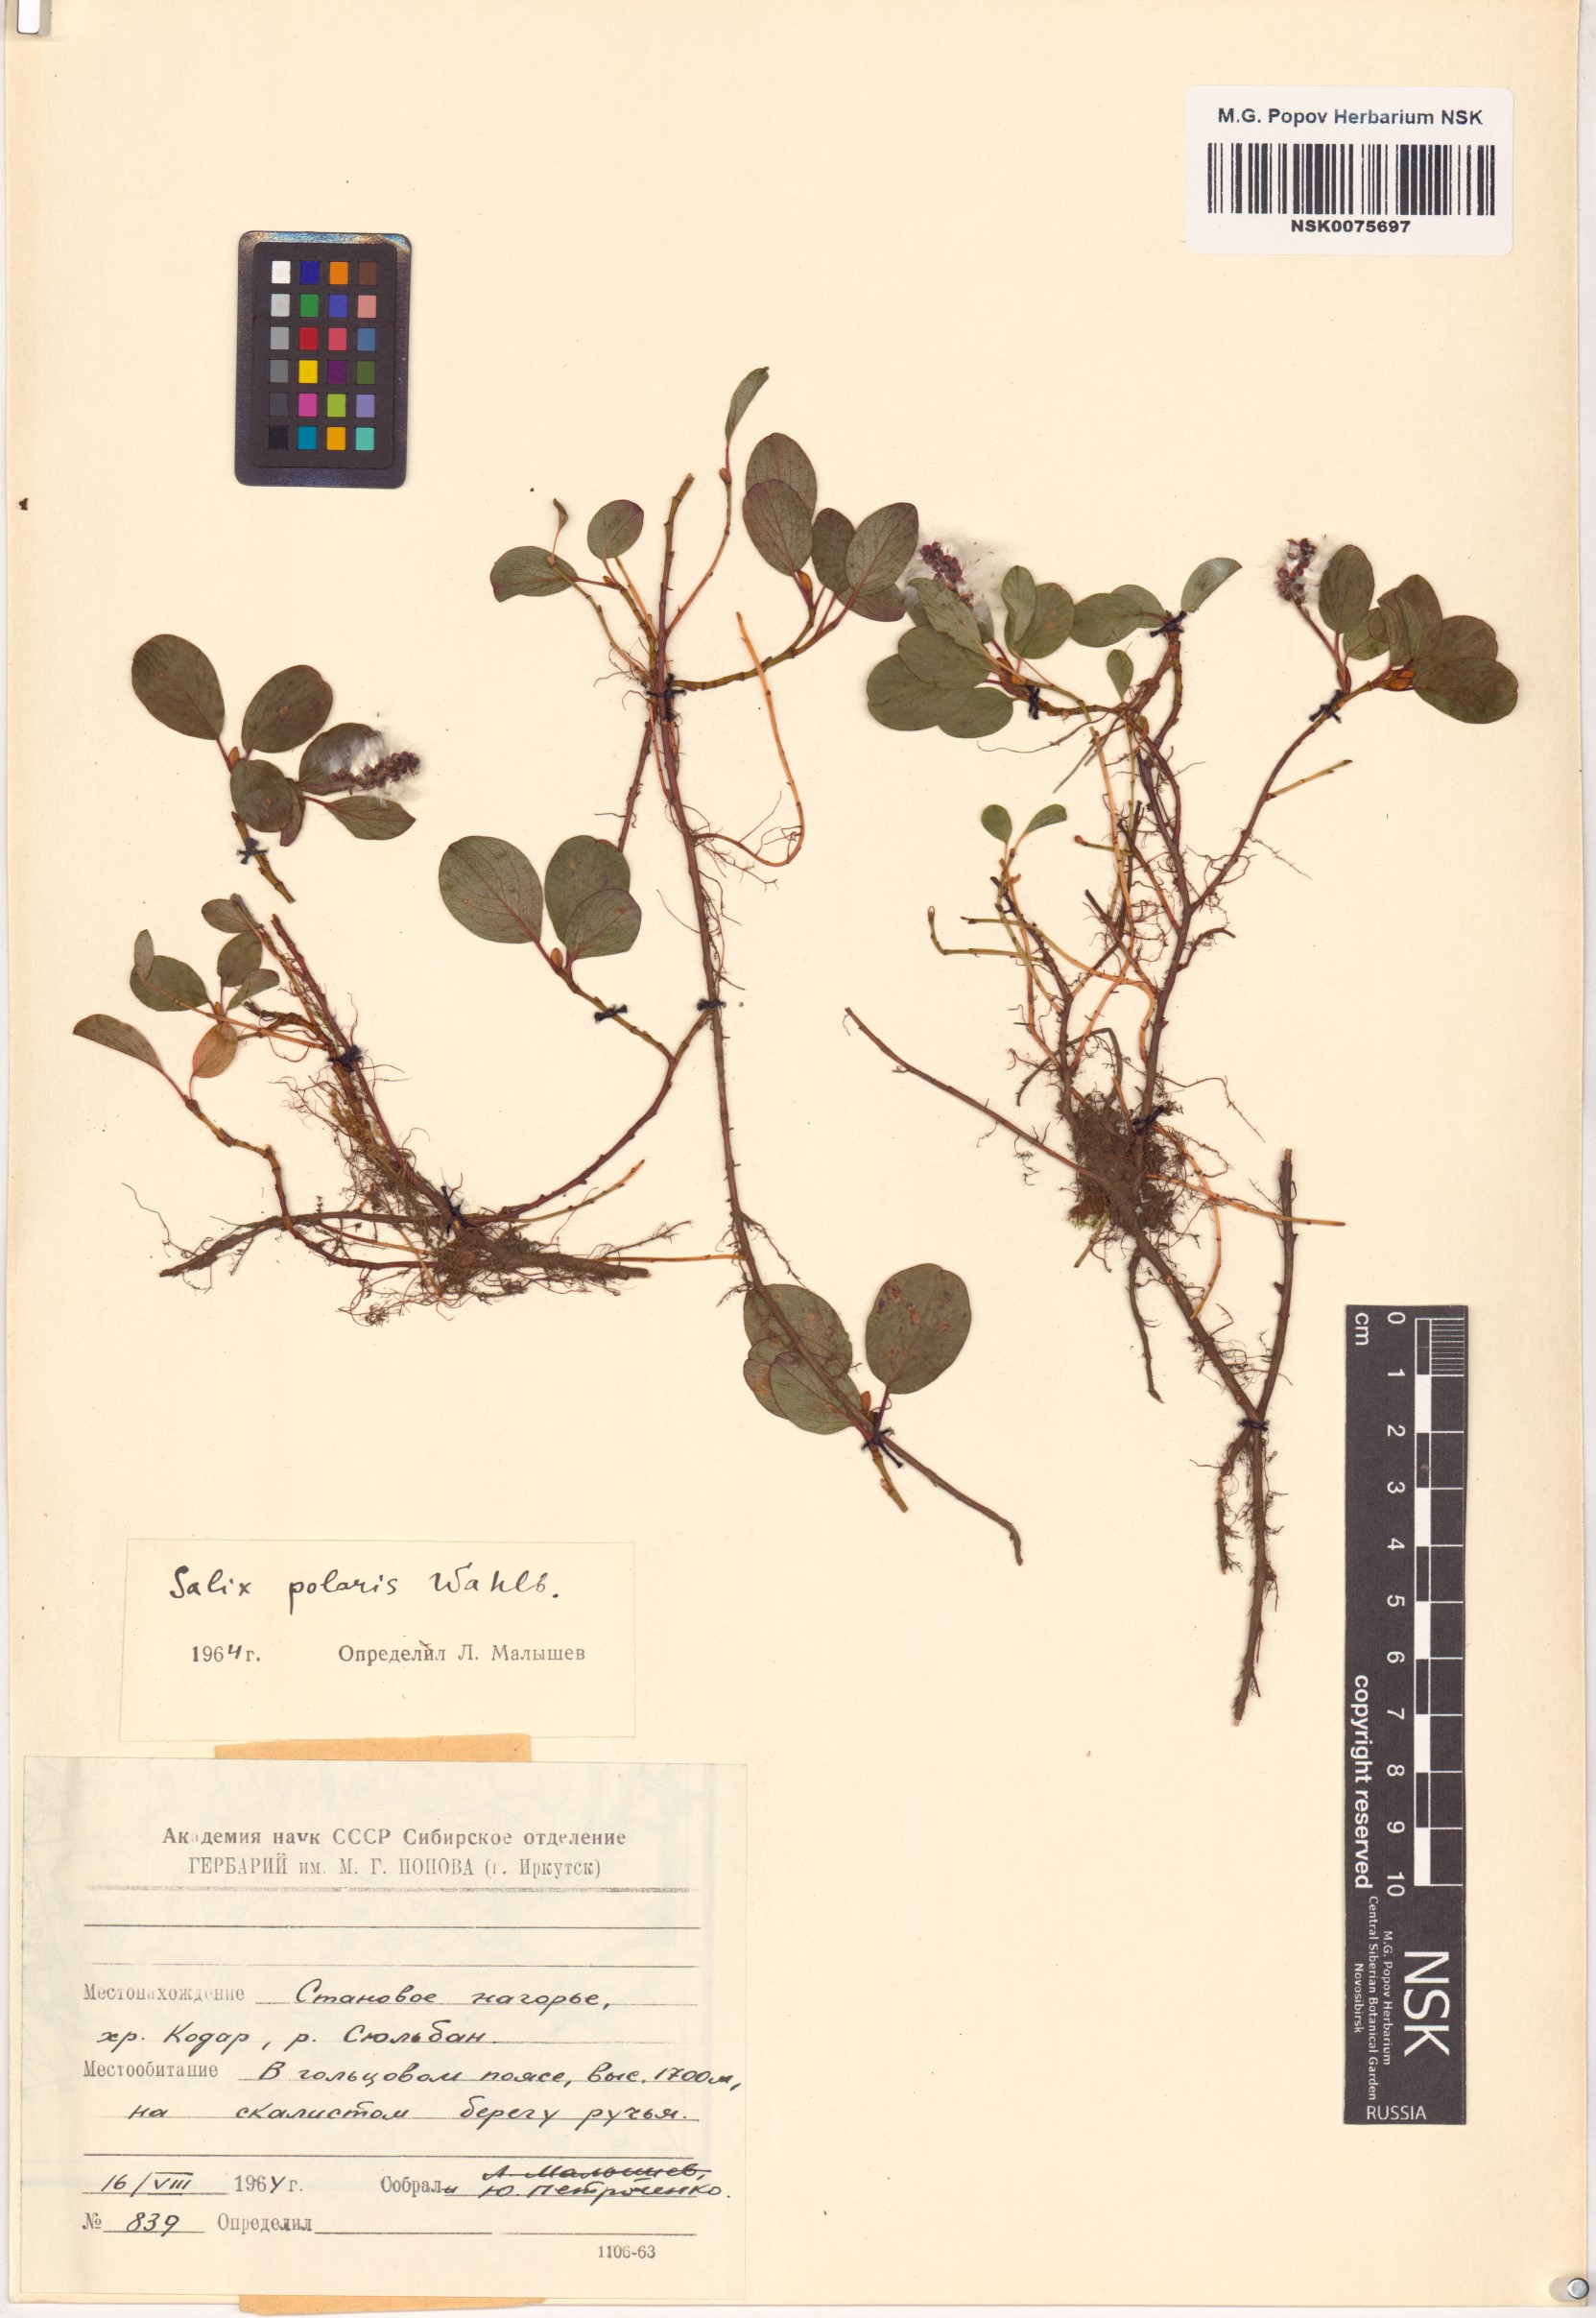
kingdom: Plantae
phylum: Tracheophyta
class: Magnoliopsida
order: Malpighiales
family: Salicaceae
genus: Salix
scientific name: Salix polaris
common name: Polar willow
